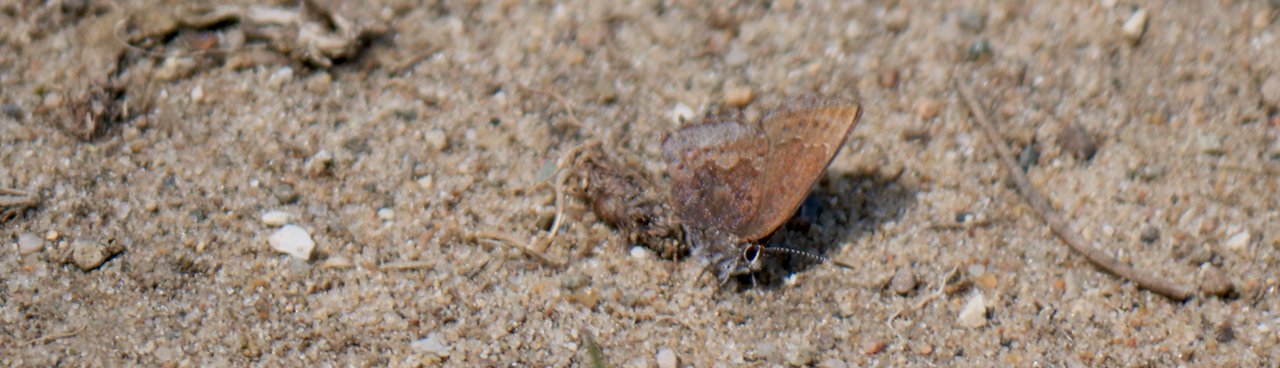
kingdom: Animalia
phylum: Arthropoda
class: Insecta
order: Lepidoptera
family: Lycaenidae
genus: Callophrys
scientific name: Callophrys polios
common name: Hoary Elfin
